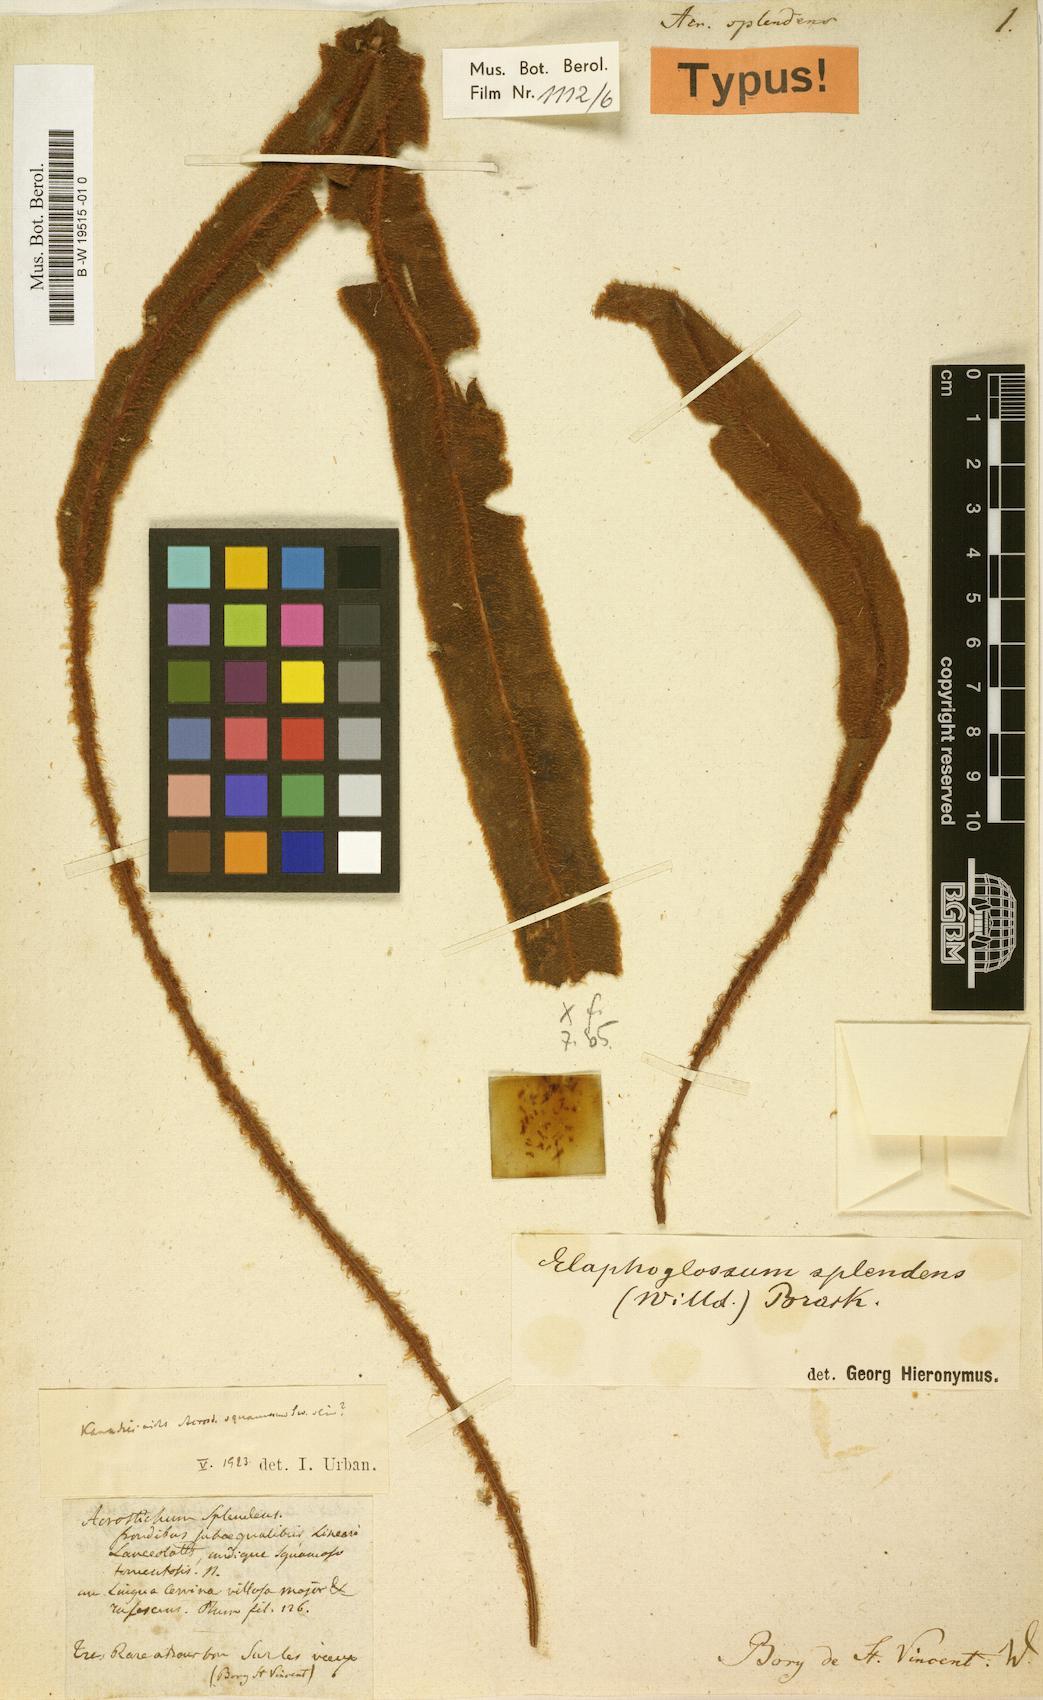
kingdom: Plantae
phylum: Tracheophyta
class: Polypodiopsida
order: Polypodiales
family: Dryopteridaceae
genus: Elaphoglossum
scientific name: Elaphoglossum splendens
